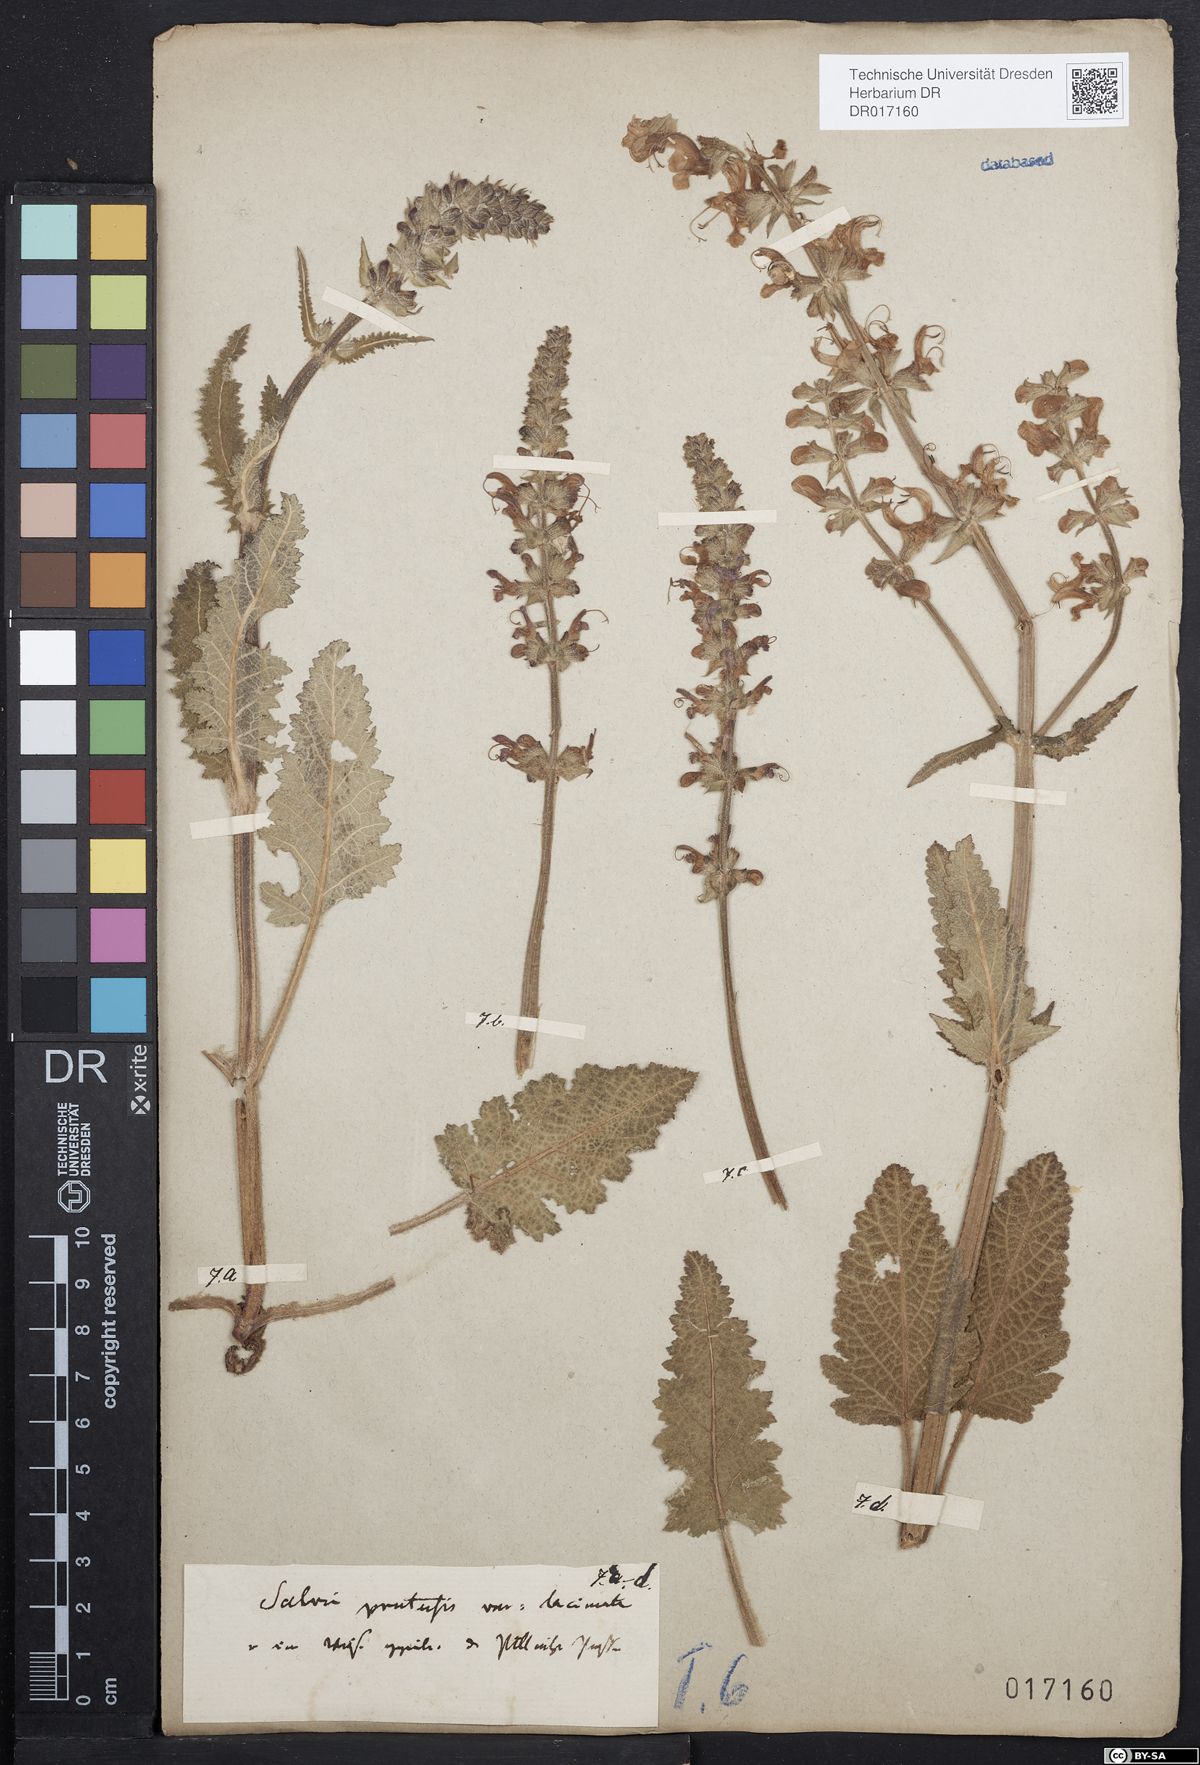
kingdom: Plantae
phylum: Tracheophyta
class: Magnoliopsida
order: Lamiales
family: Lamiaceae
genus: Salvia
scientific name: Salvia pratensis
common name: Meadow sage
